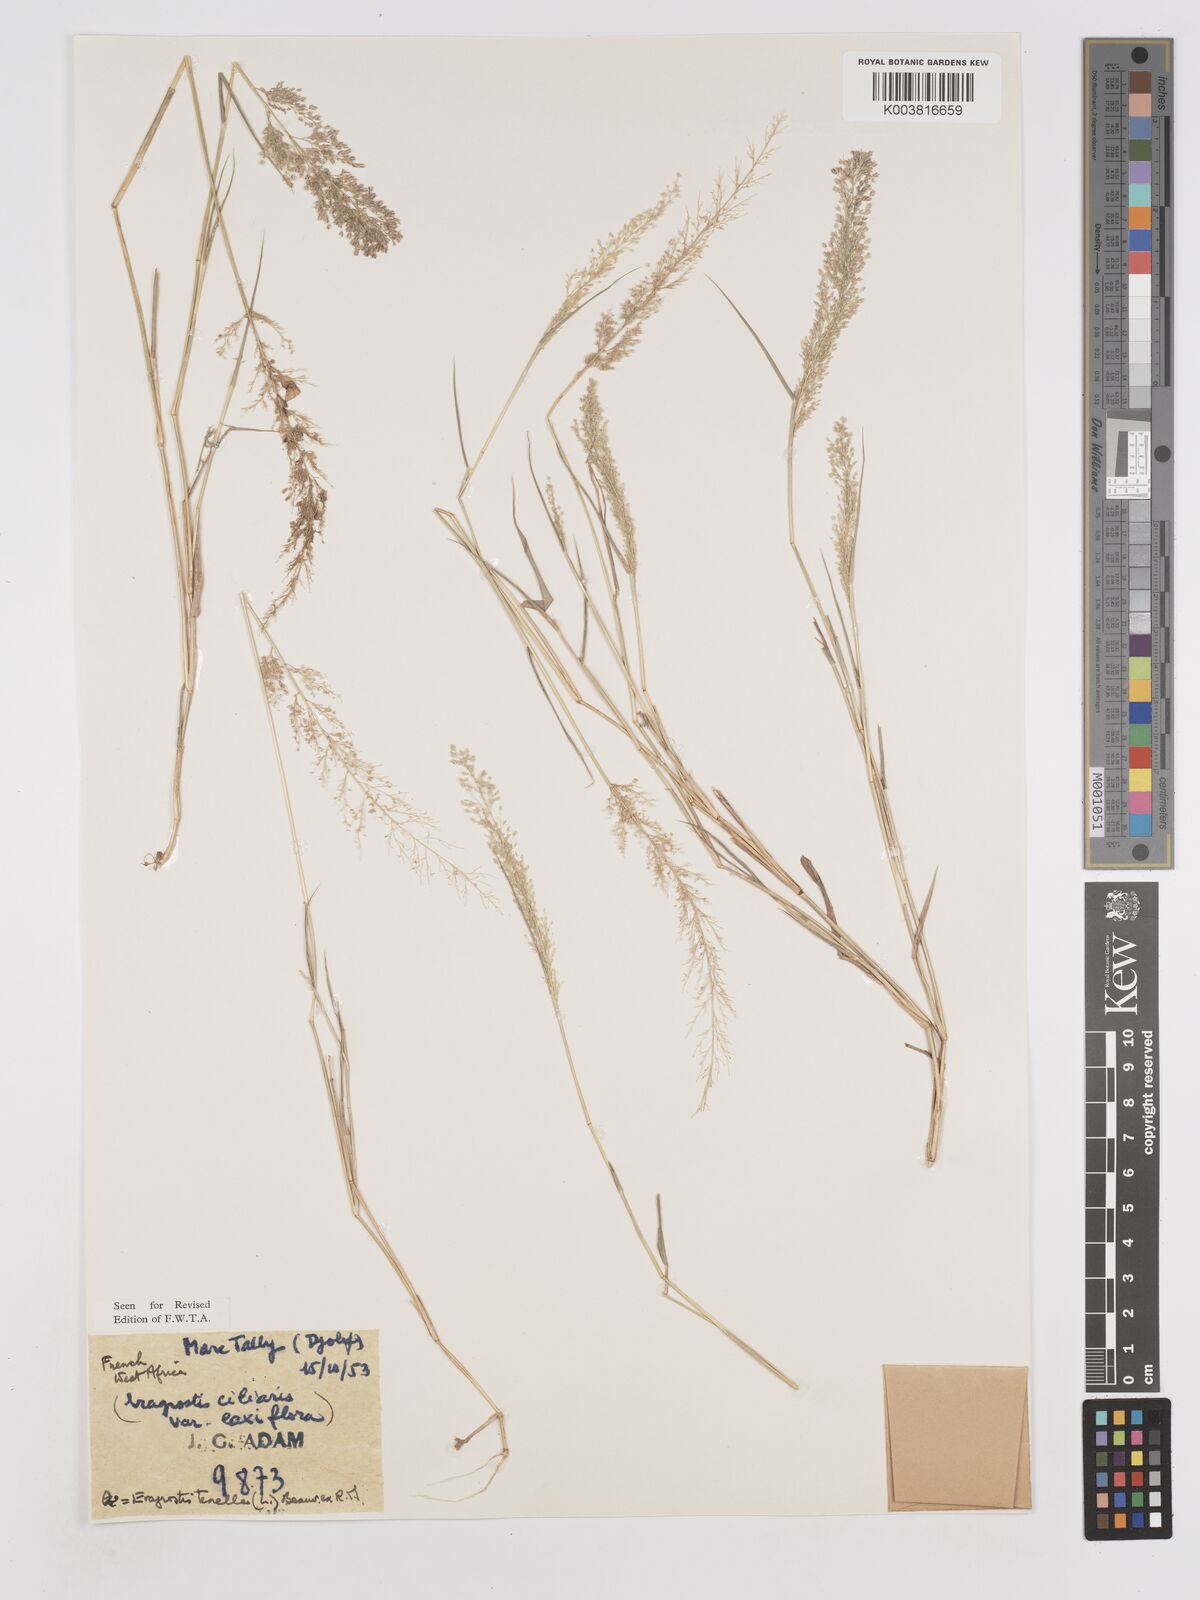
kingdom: Plantae
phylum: Tracheophyta
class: Liliopsida
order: Poales
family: Poaceae
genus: Eragrostis
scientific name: Eragrostis tenella
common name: Japanese lovegrass
